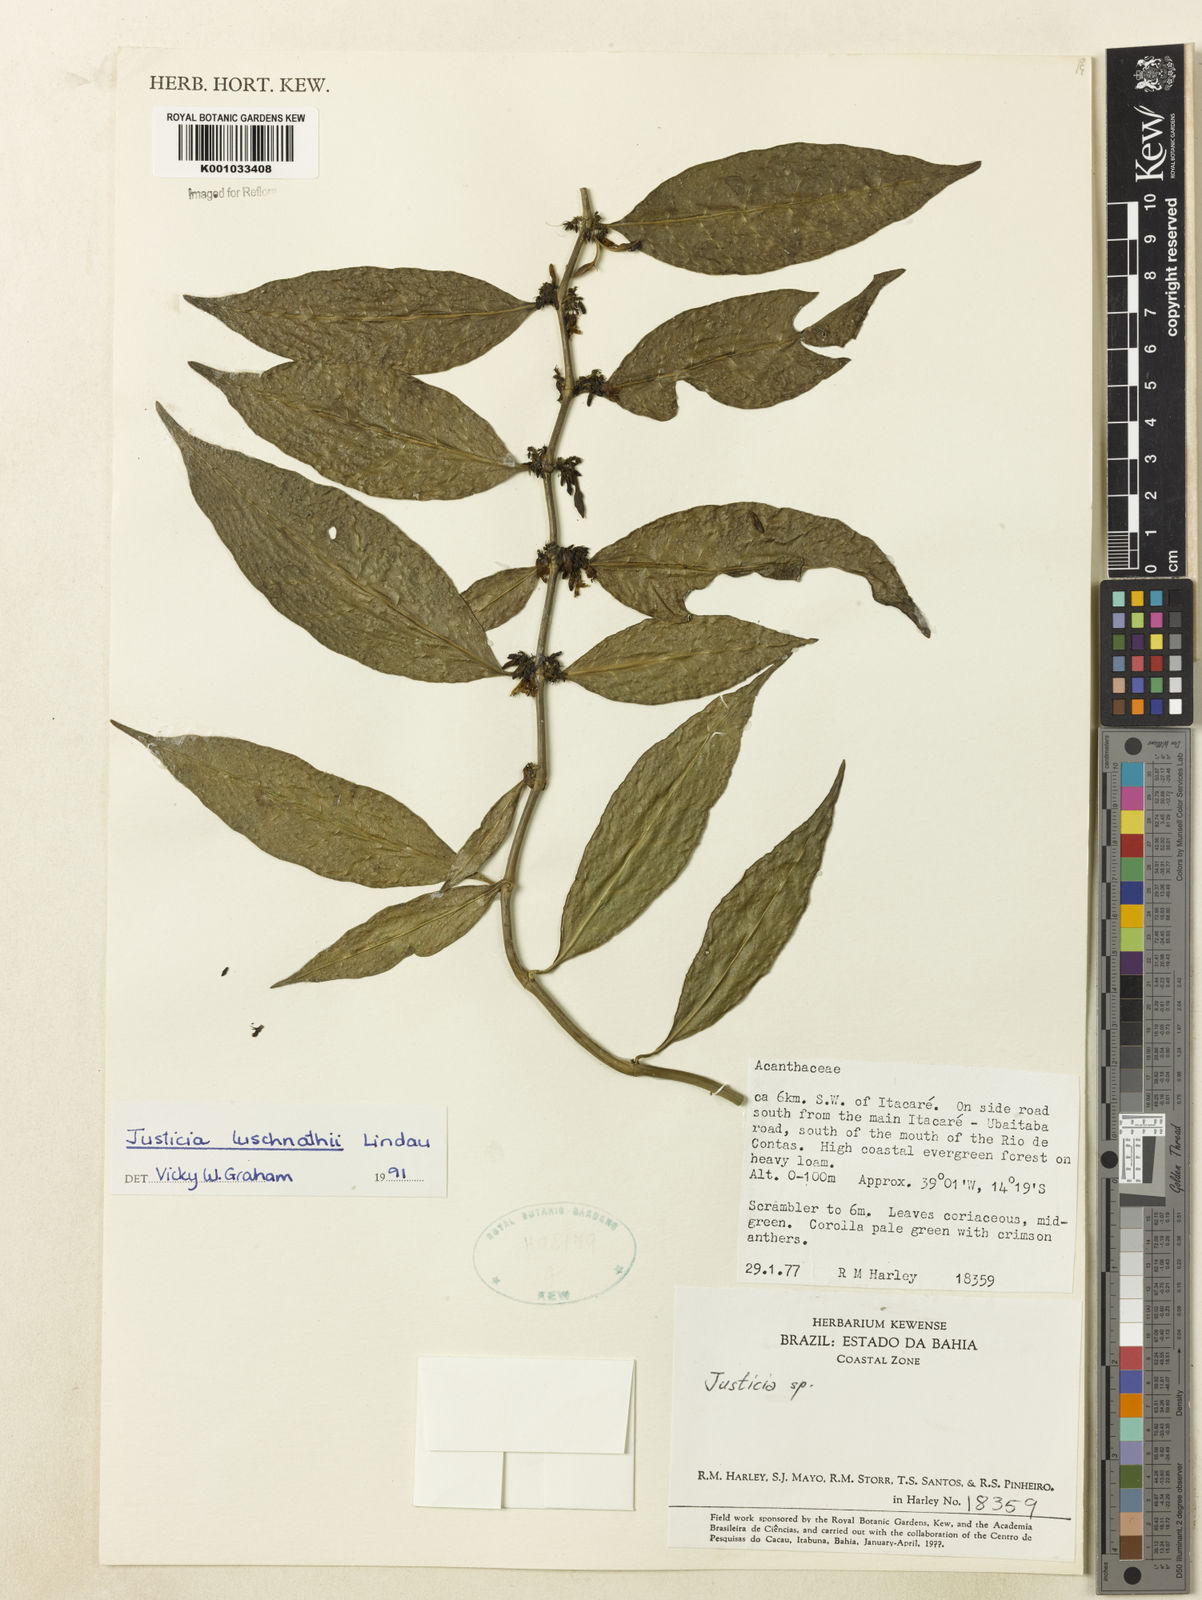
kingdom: Plantae
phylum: Tracheophyta
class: Magnoliopsida
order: Lamiales
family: Acanthaceae
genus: Justicia
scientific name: Justicia luschnathii
